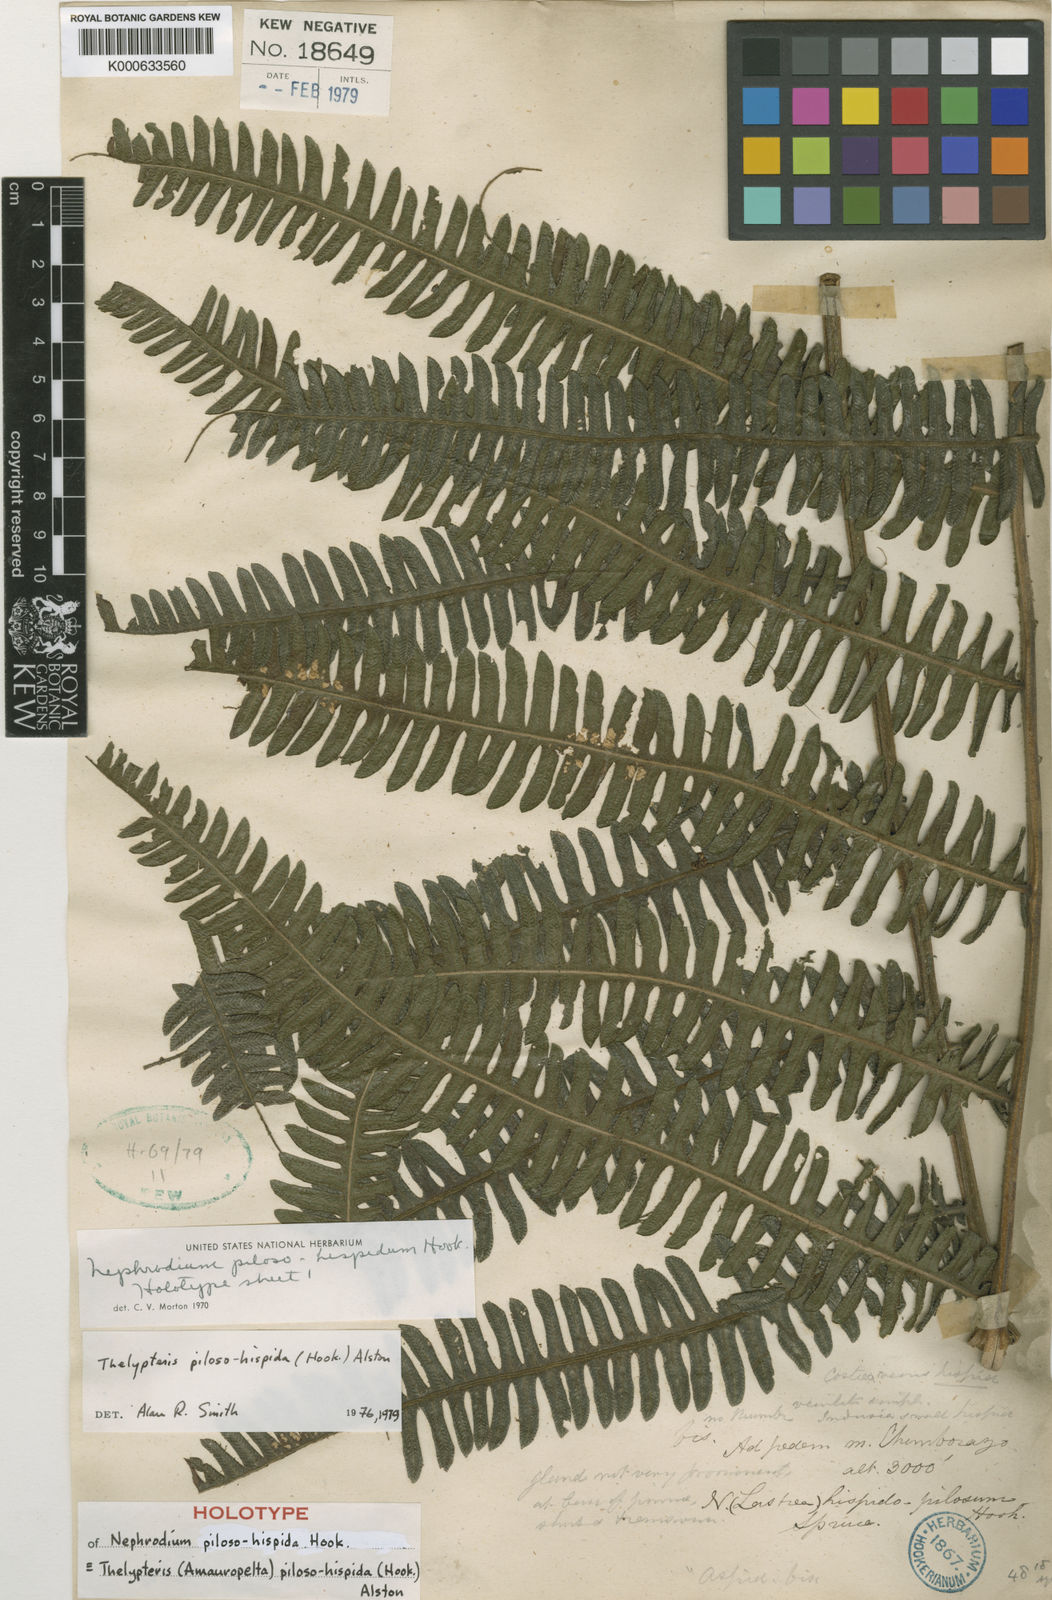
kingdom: Plantae
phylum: Tracheophyta
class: Polypodiopsida
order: Polypodiales
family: Thelypteridaceae
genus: Amauropelta
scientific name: Amauropelta pilosohispida
